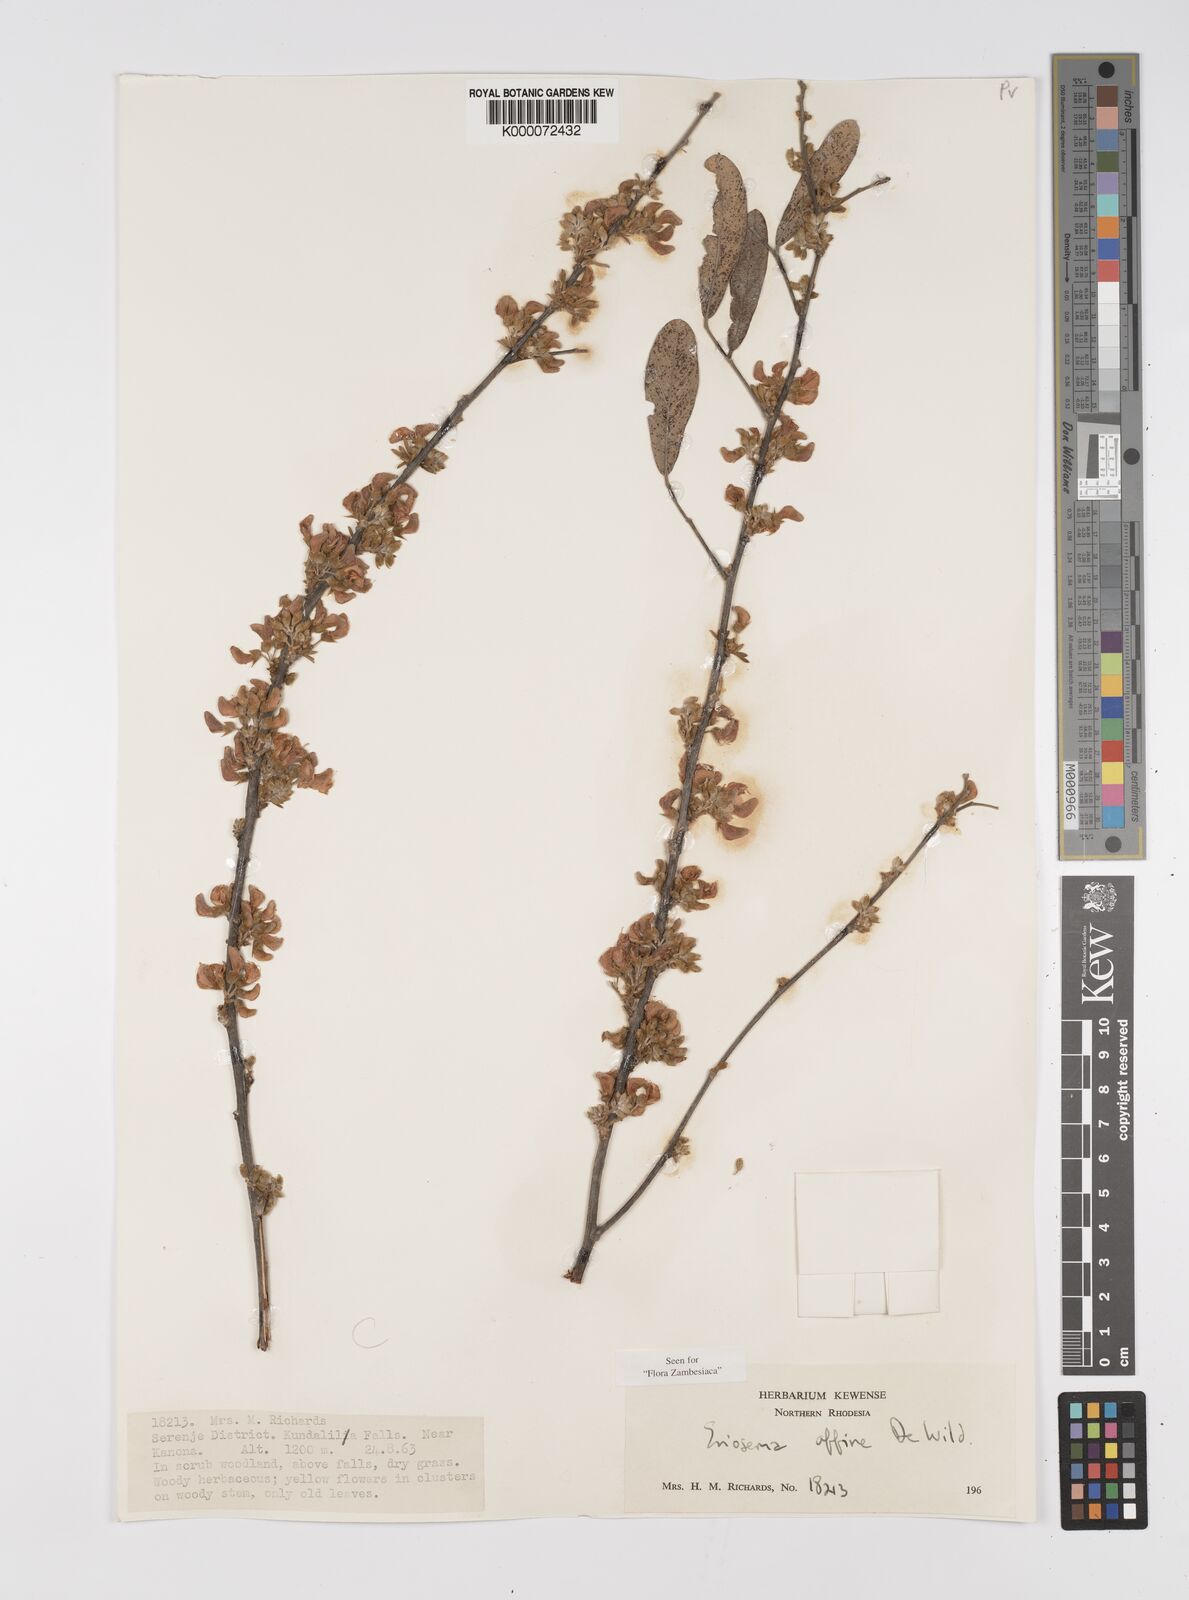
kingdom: Plantae
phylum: Tracheophyta
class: Magnoliopsida
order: Fabales
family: Fabaceae
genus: Eriosema
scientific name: Eriosema affine
